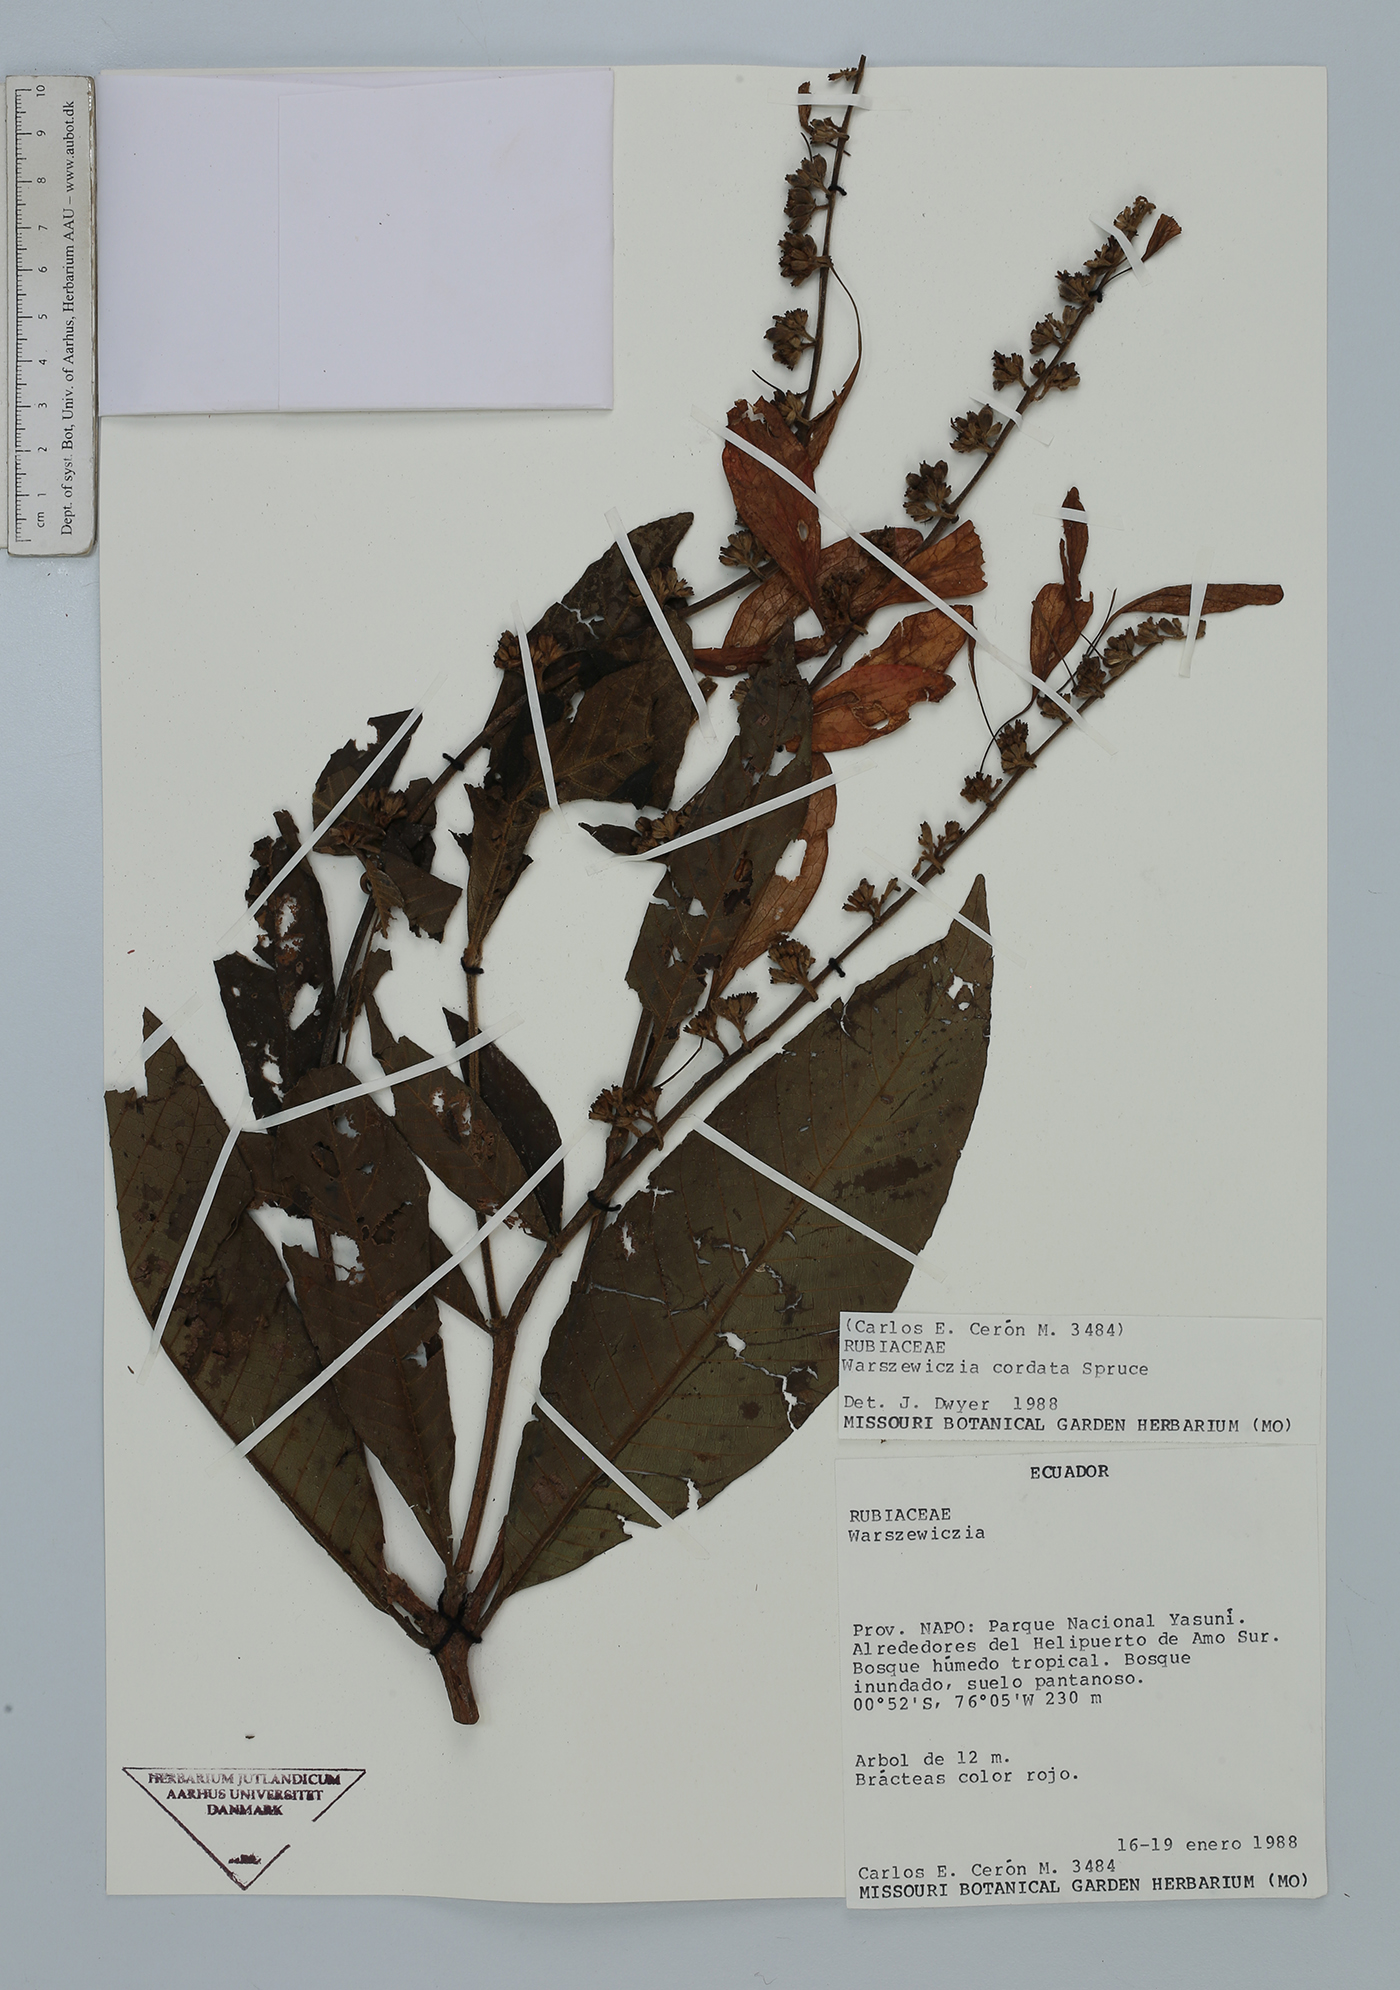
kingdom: Plantae
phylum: Tracheophyta
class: Magnoliopsida
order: Gentianales
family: Rubiaceae
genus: Warszewiczia
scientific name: Warszewiczia cordata
